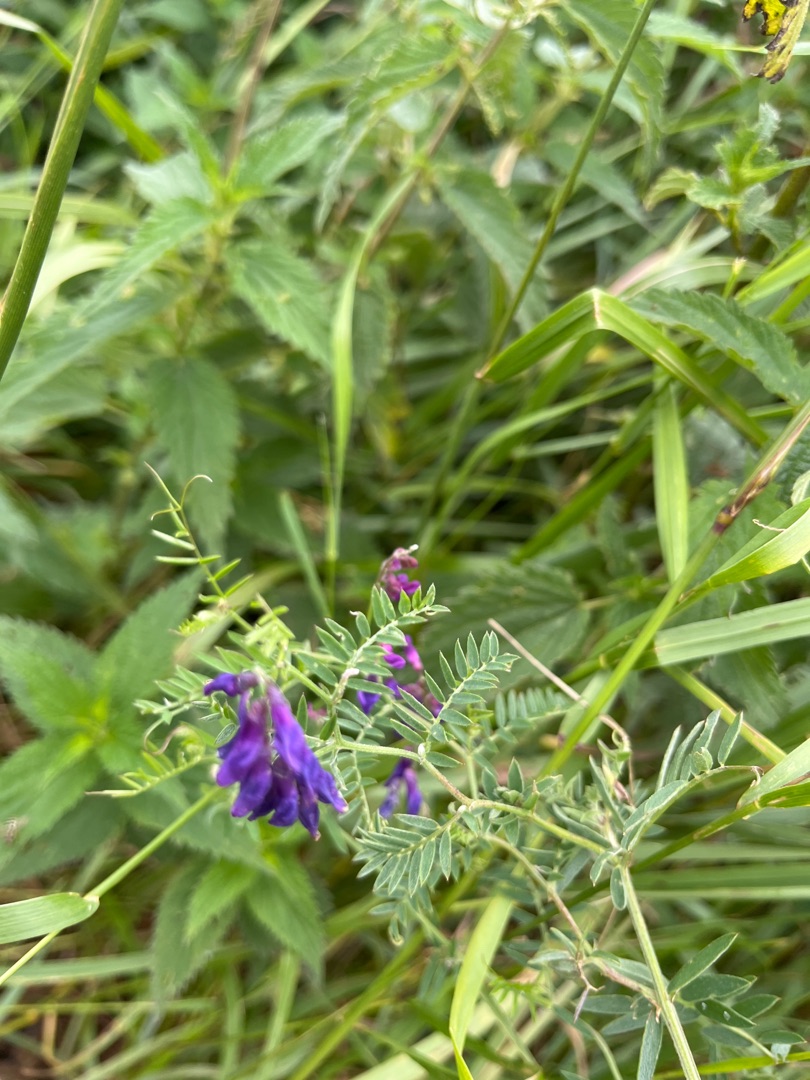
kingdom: Plantae
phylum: Tracheophyta
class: Magnoliopsida
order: Fabales
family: Fabaceae
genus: Vicia
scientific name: Vicia cracca
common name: Muse-vikke
